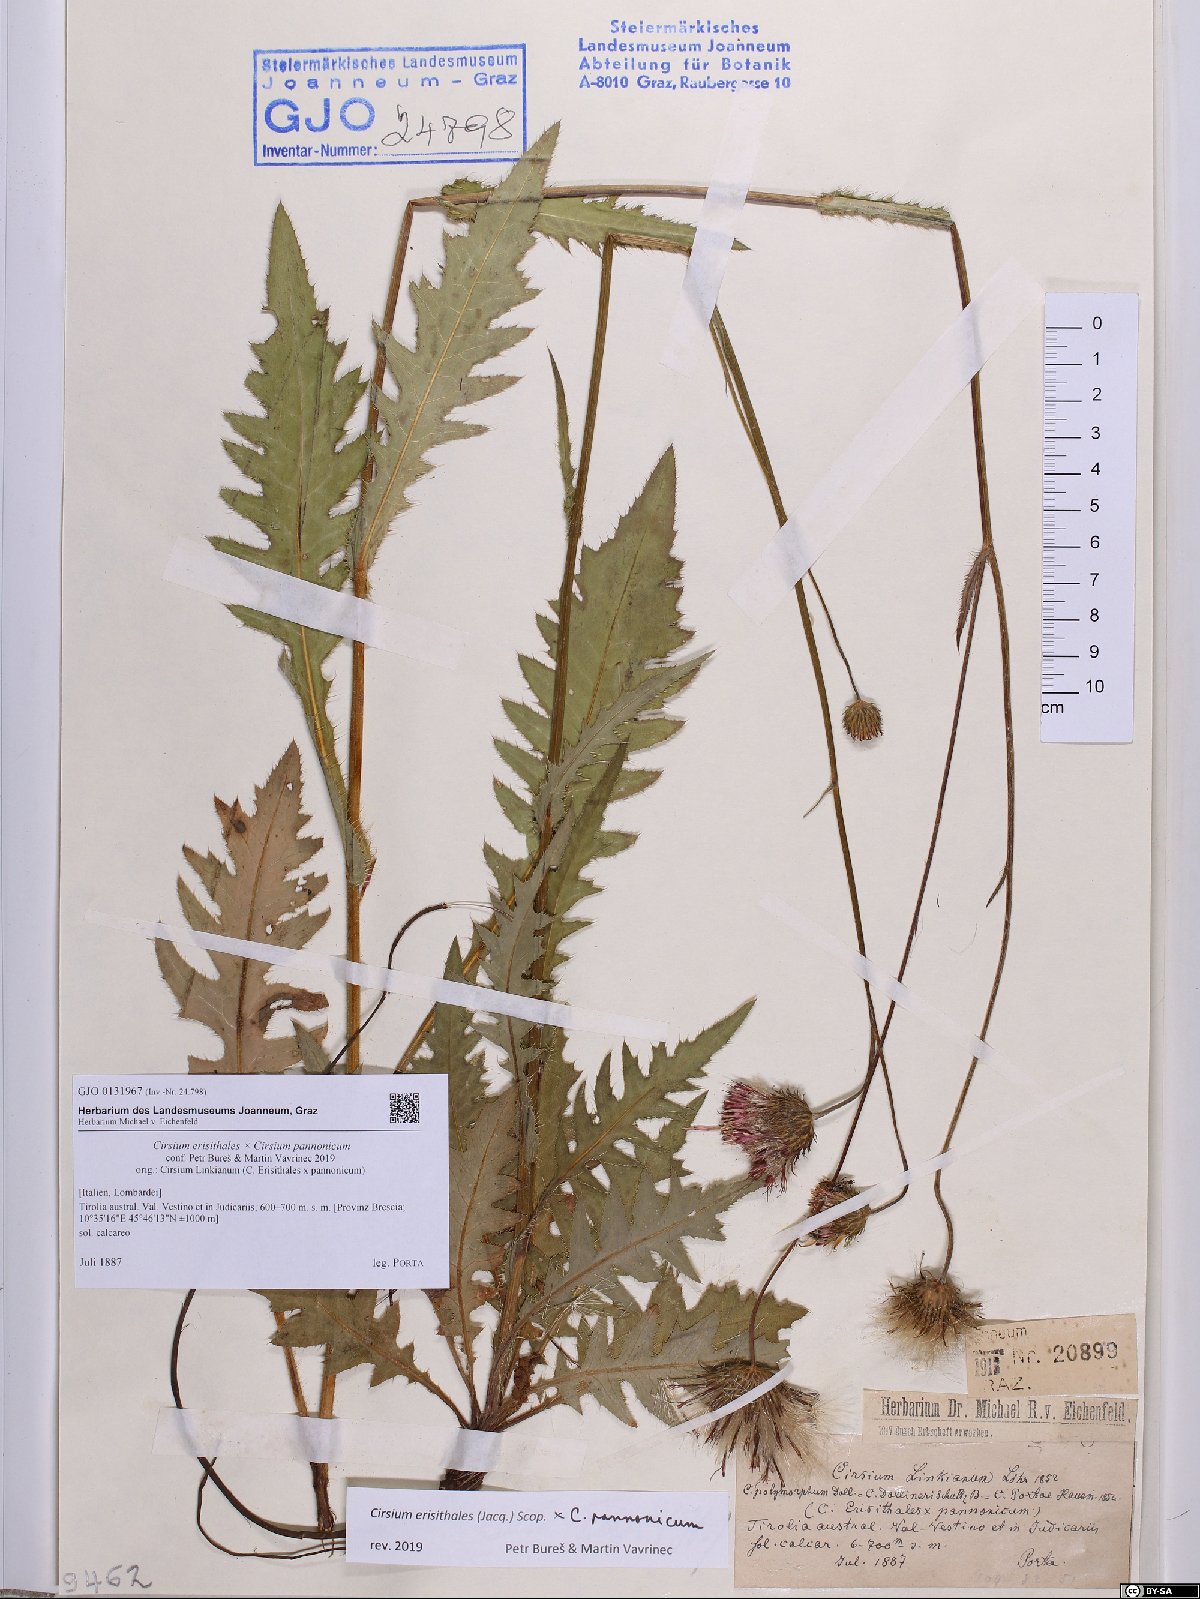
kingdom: Plantae
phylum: Tracheophyta
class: Magnoliopsida
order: Asterales
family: Asteraceae
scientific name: Asteraceae
